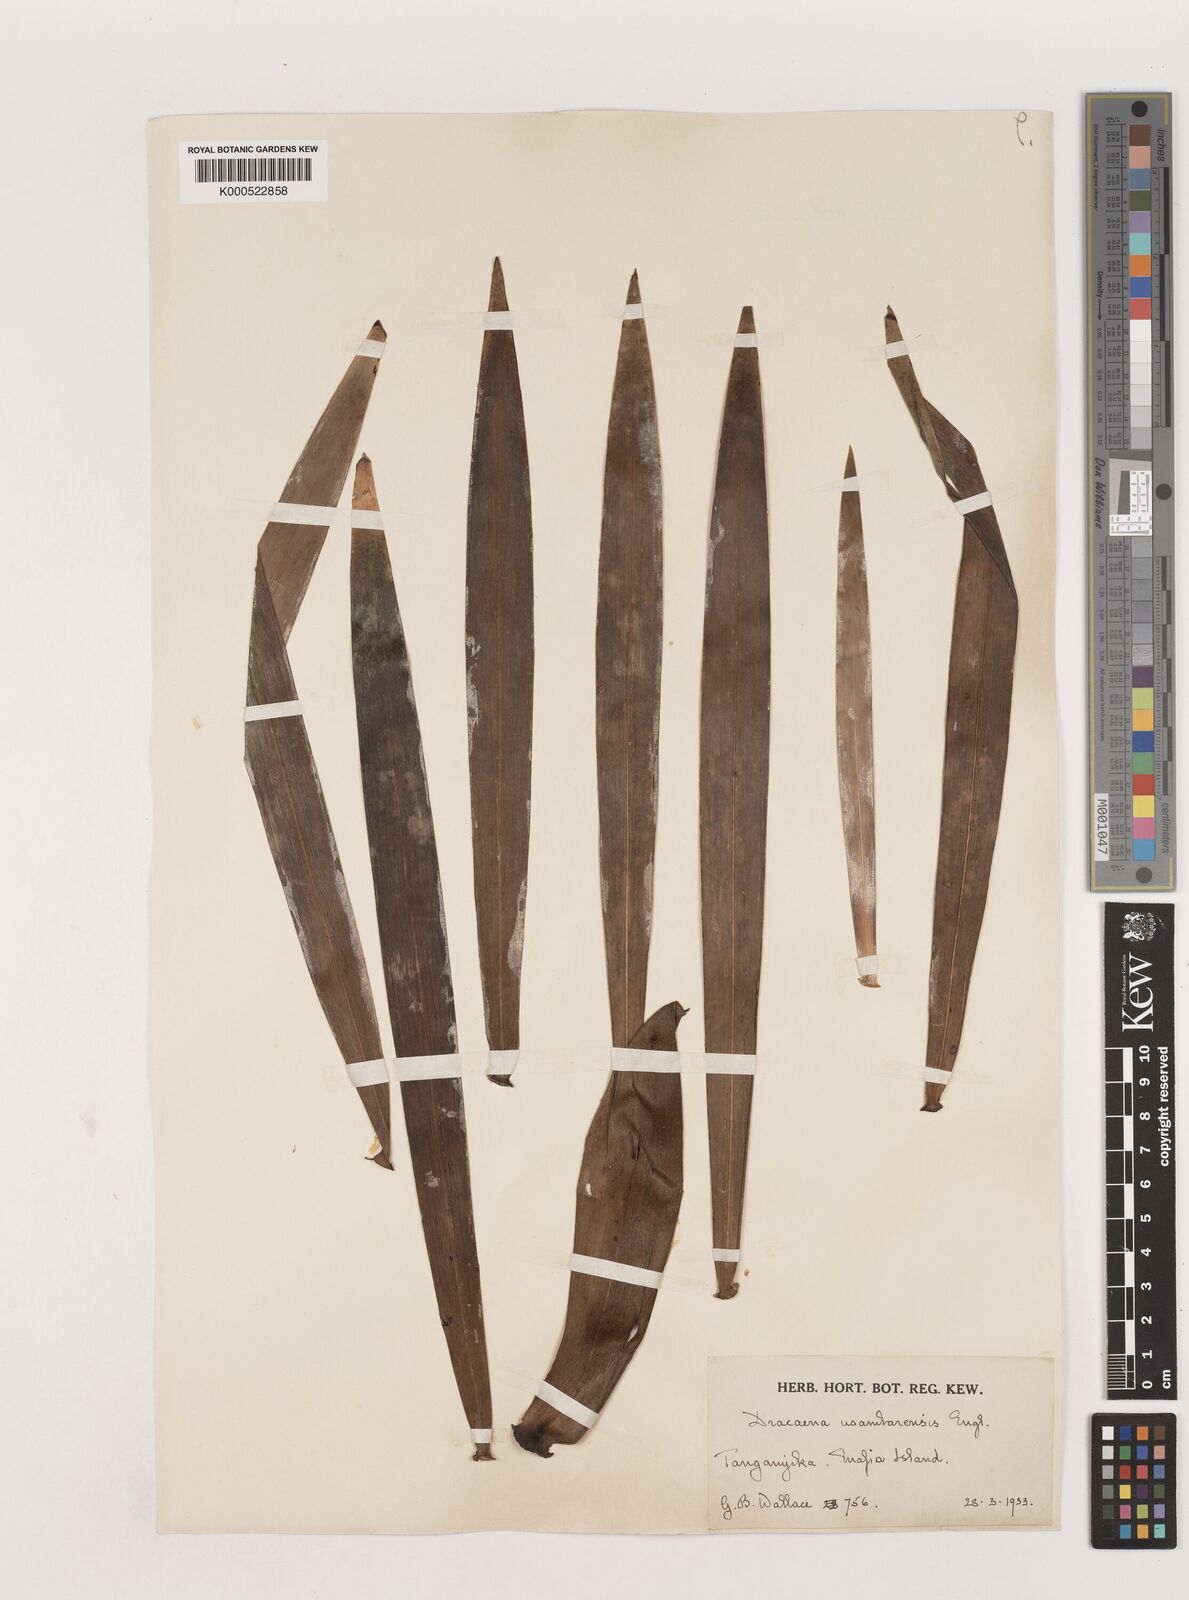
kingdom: Plantae
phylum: Tracheophyta
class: Liliopsida
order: Asparagales
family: Asparagaceae
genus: Dracaena
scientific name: Dracaena usambarensis
